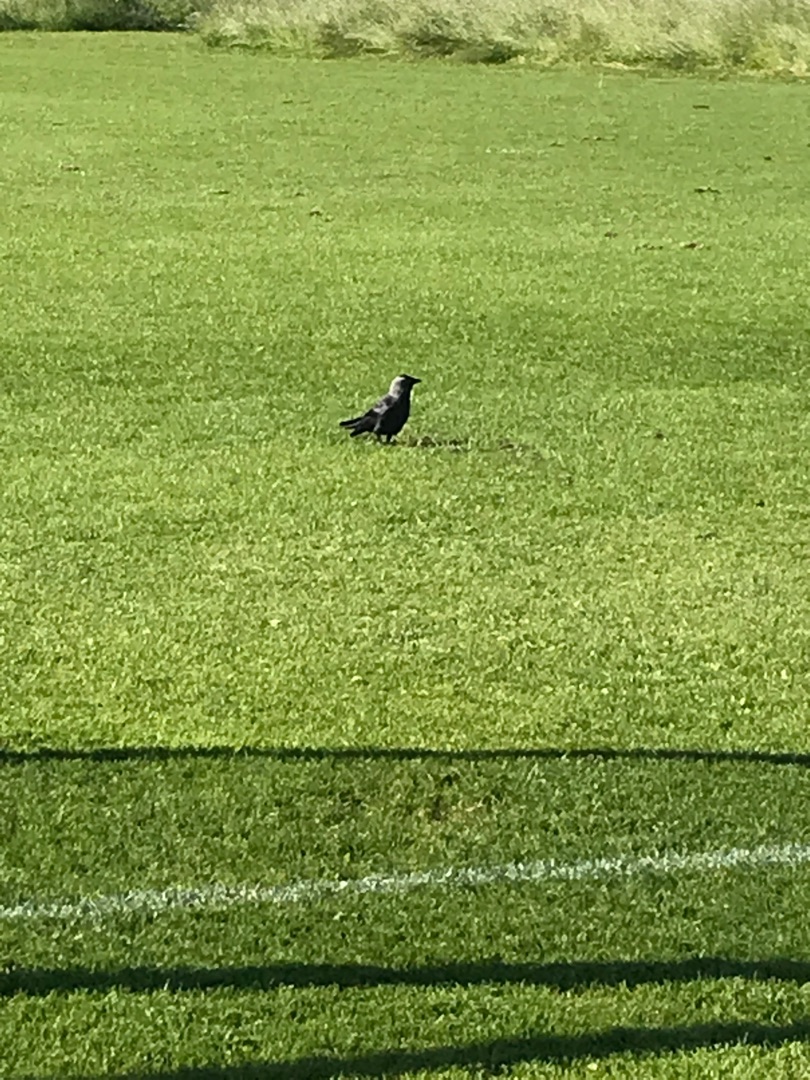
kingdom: Animalia
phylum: Chordata
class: Aves
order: Passeriformes
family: Corvidae
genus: Coloeus
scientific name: Coloeus monedula
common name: Allike
